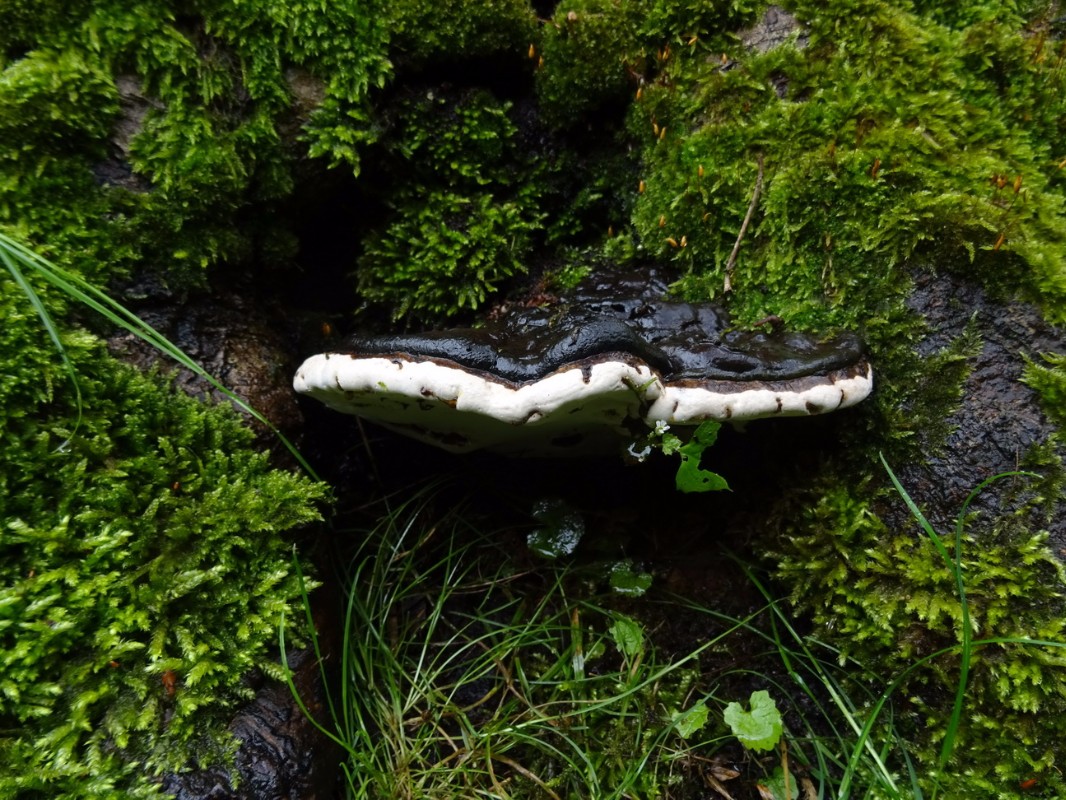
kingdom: Fungi
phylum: Basidiomycota
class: Agaricomycetes
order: Polyporales
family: Polyporaceae
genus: Ganoderma
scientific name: Ganoderma applanatum
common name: flad lakporesvamp
